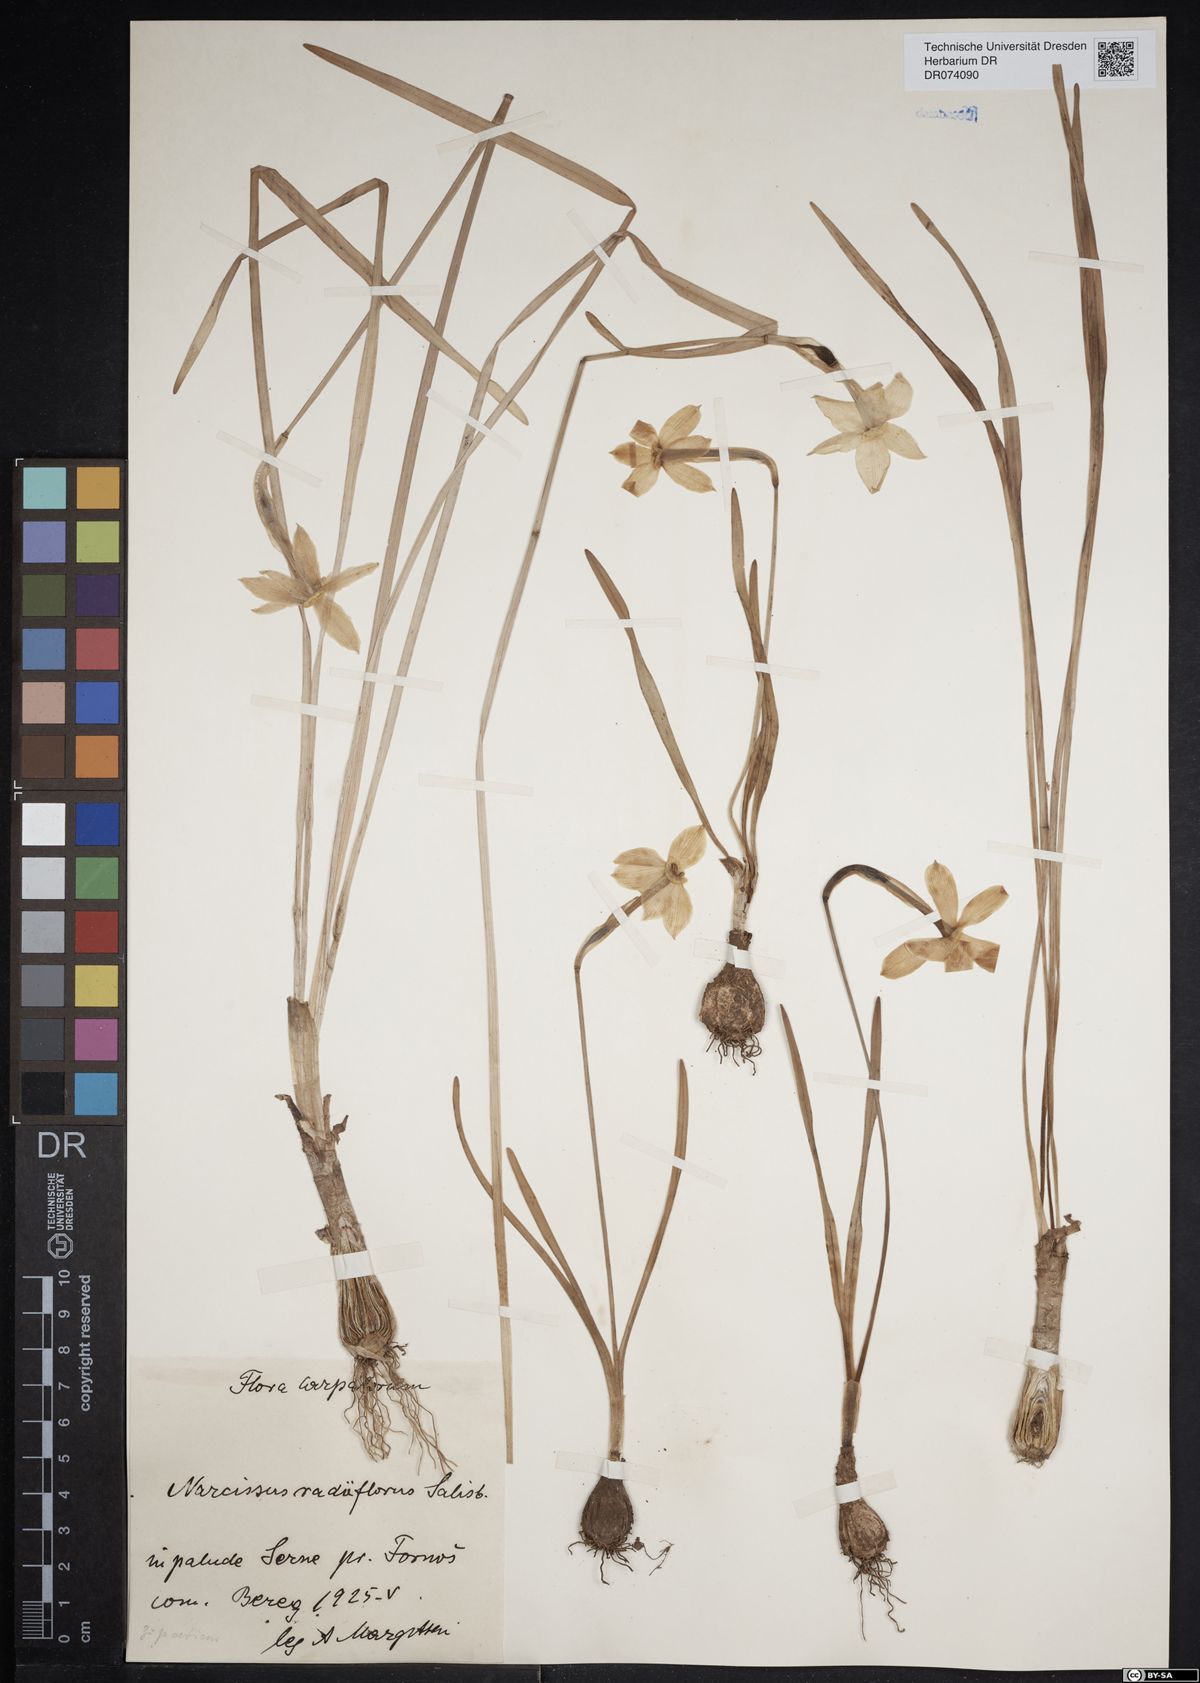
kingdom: Plantae
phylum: Tracheophyta
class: Liliopsida
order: Asparagales
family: Amaryllidaceae
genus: Narcissus
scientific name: Narcissus poeticus
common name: Pheasant's-eye daffodil
